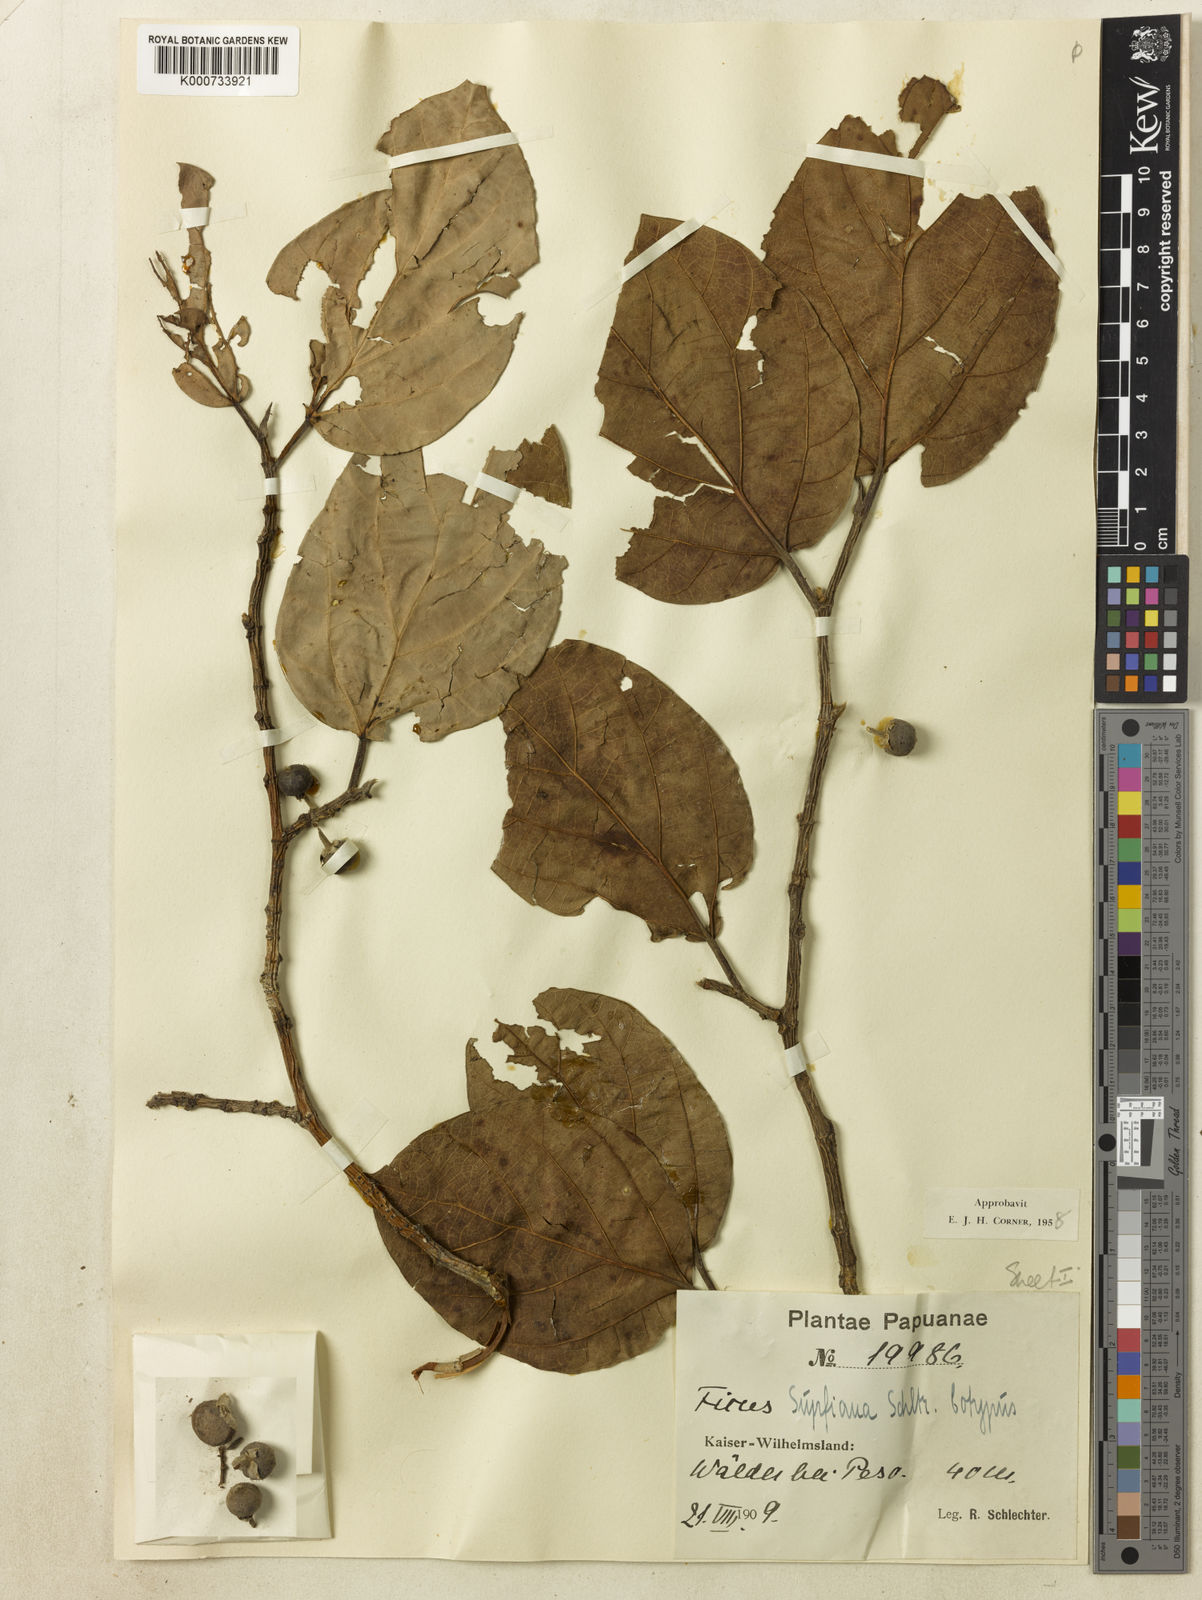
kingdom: Plantae
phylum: Tracheophyta
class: Magnoliopsida
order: Rosales
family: Moraceae
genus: Ficus
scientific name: Ficus supfiana
